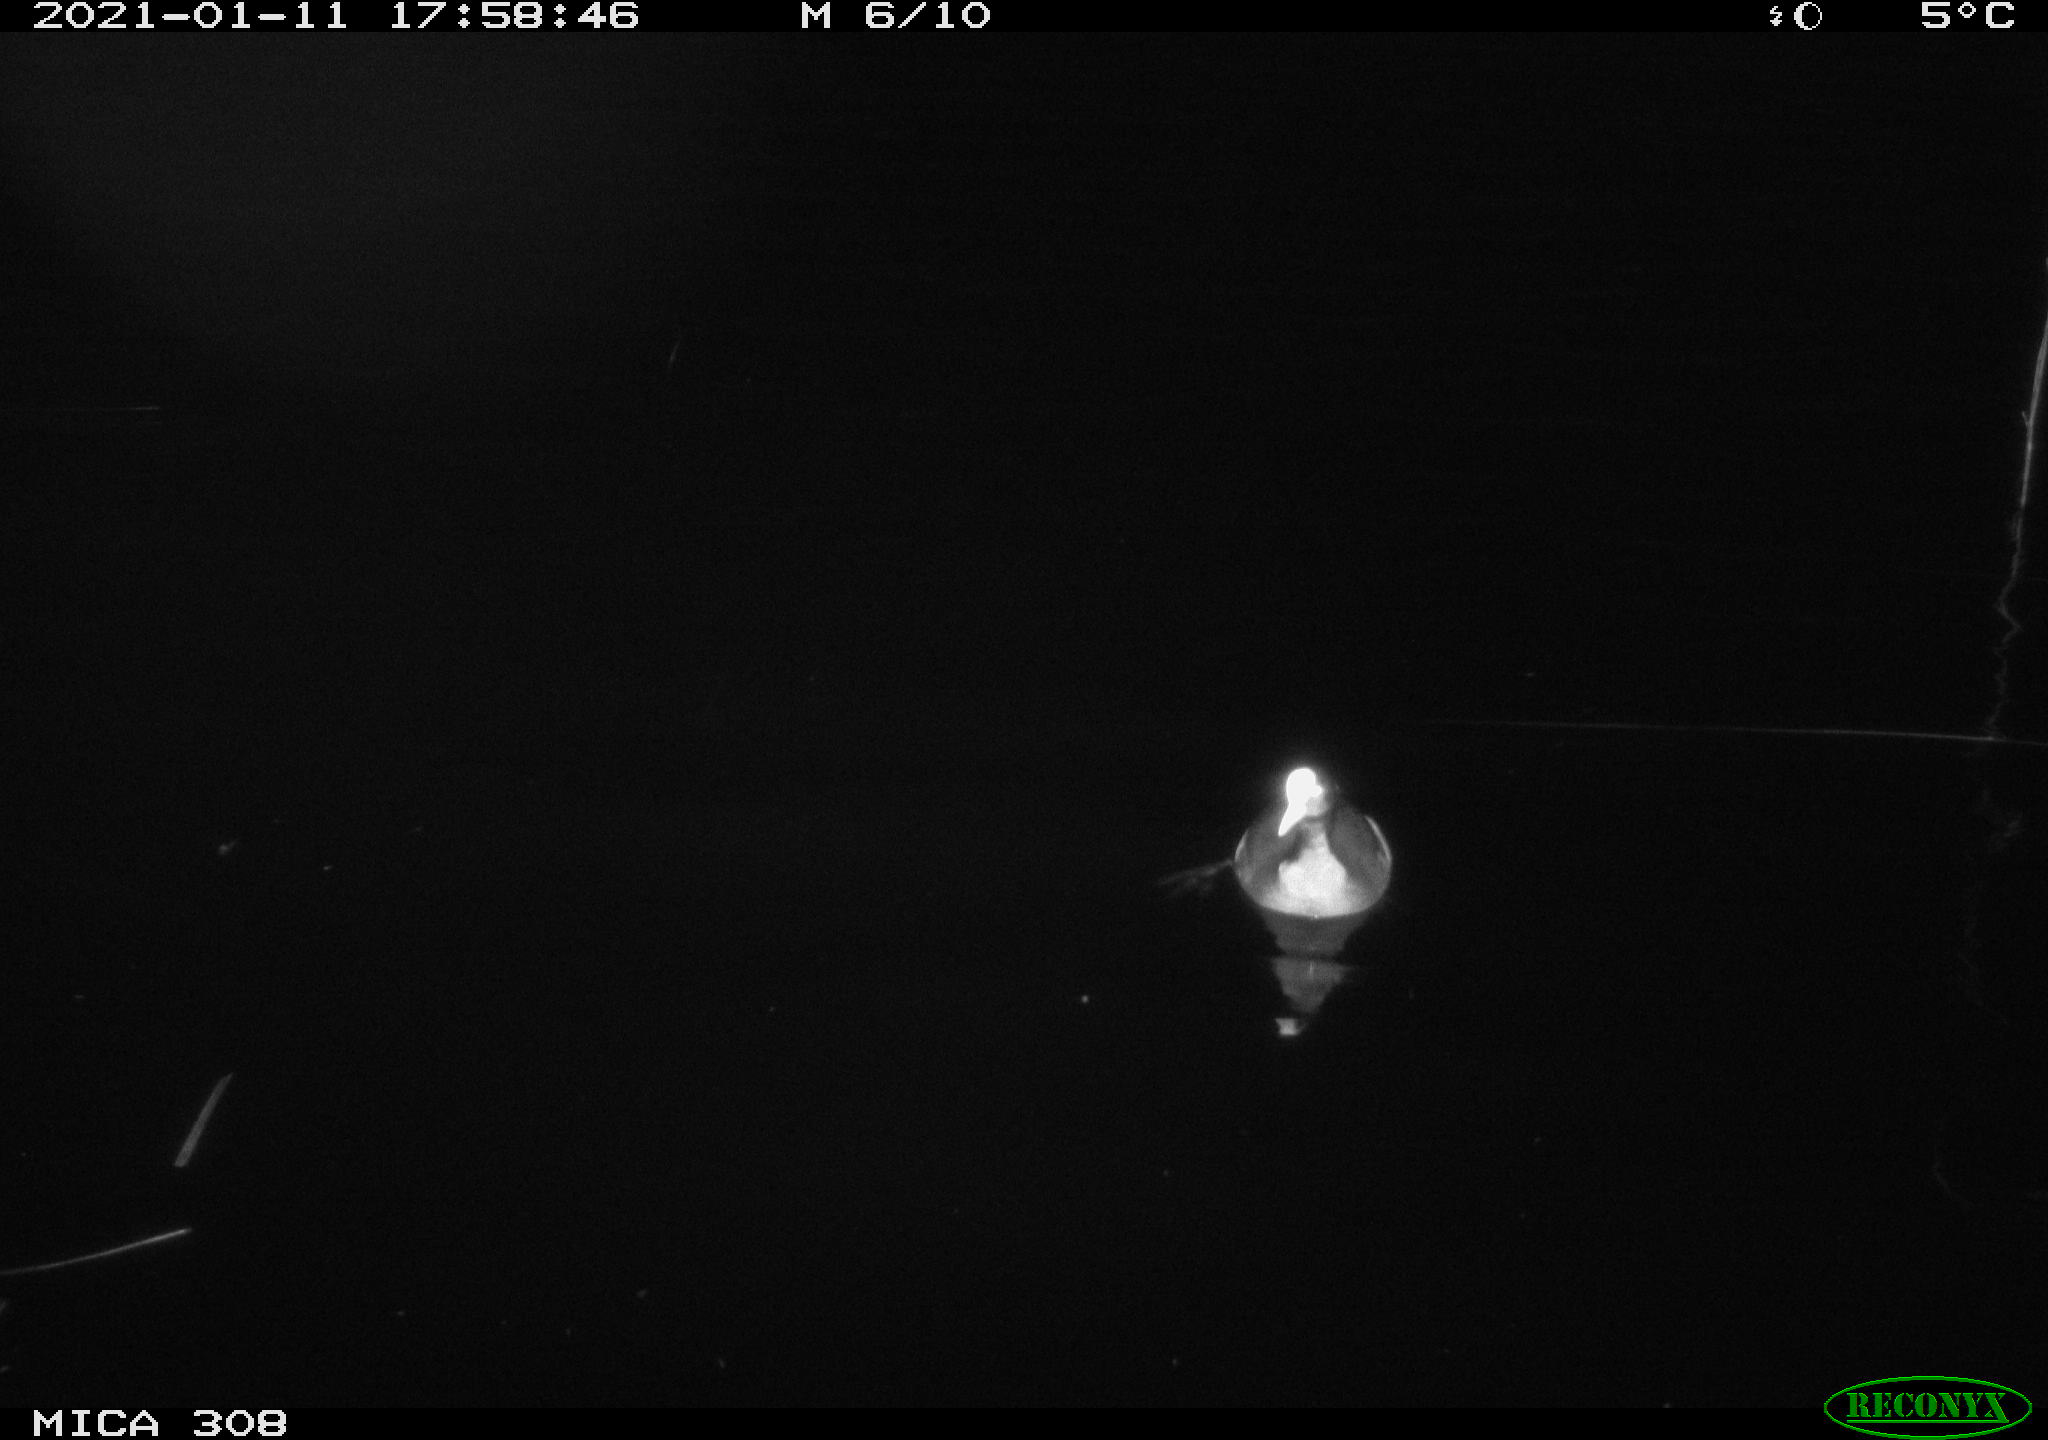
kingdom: Animalia
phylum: Chordata
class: Aves
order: Gruiformes
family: Rallidae
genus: Fulica
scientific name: Fulica atra
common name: Eurasian coot
